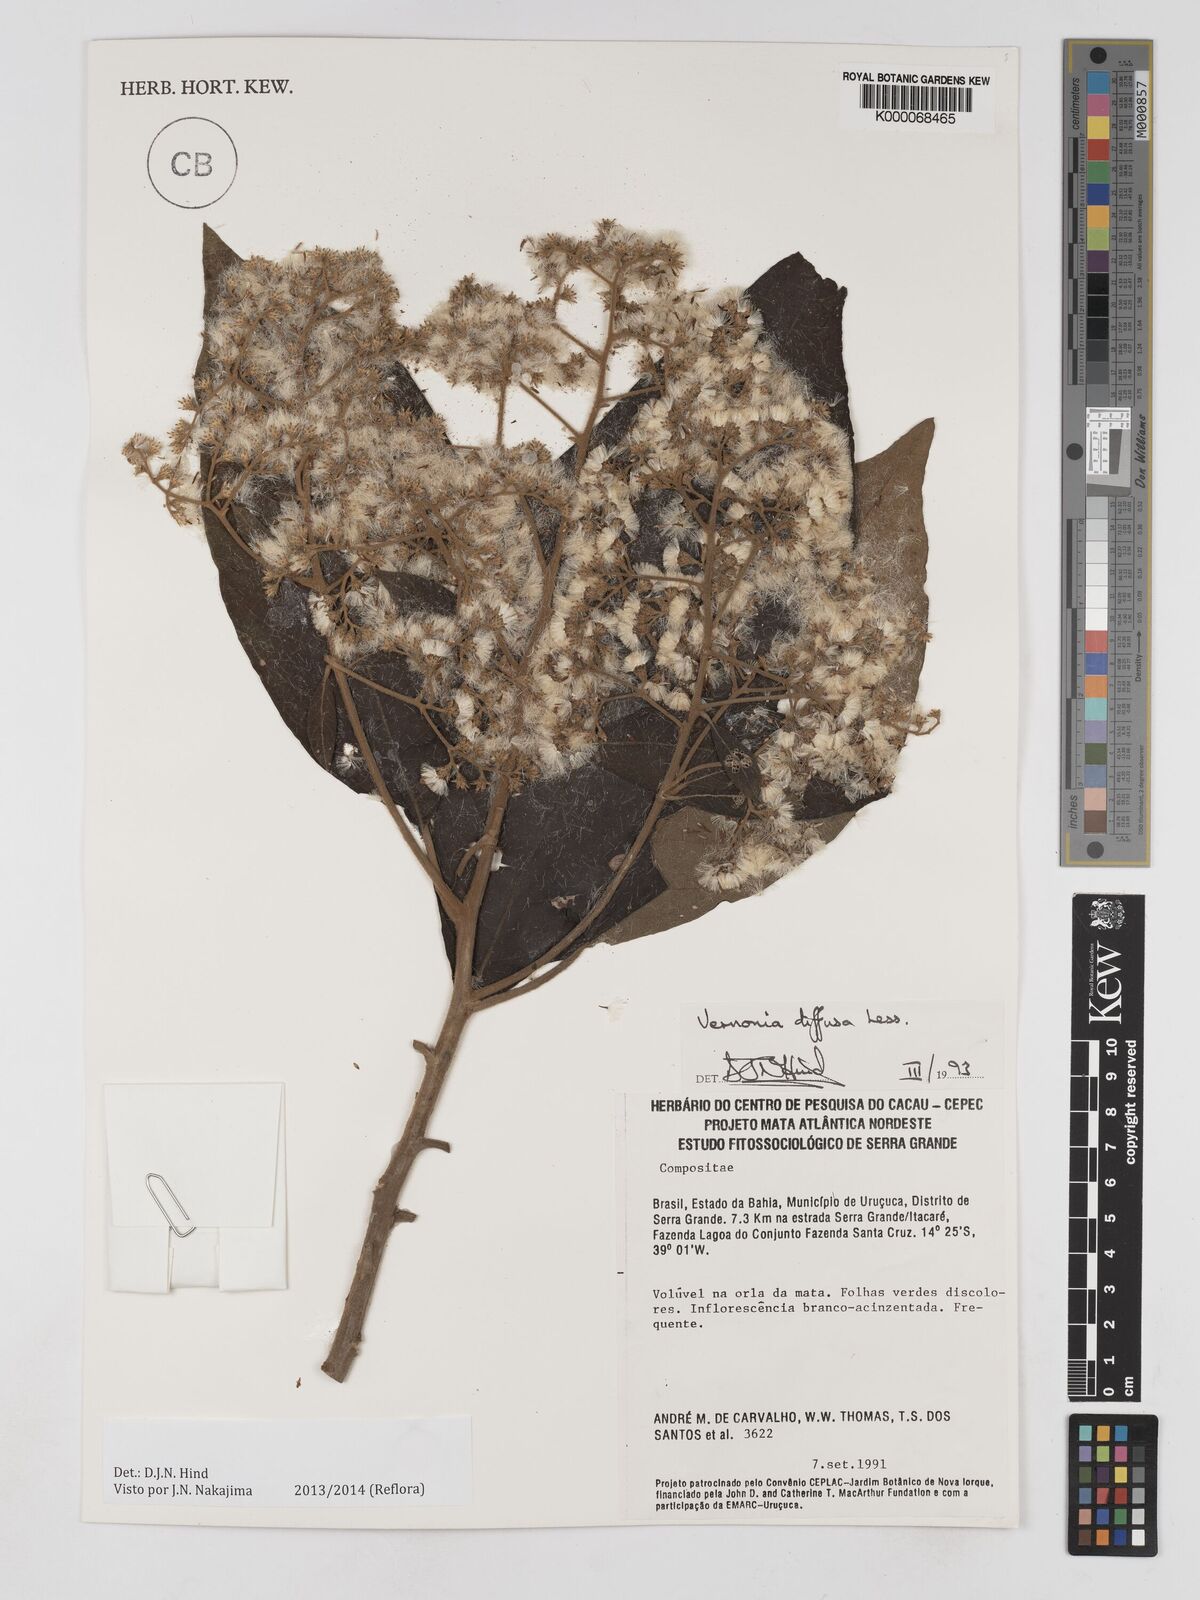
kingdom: Plantae
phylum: Tracheophyta
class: Magnoliopsida
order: Asterales
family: Asteraceae
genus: Vernonanthura
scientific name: Vernonanthura divaricata
